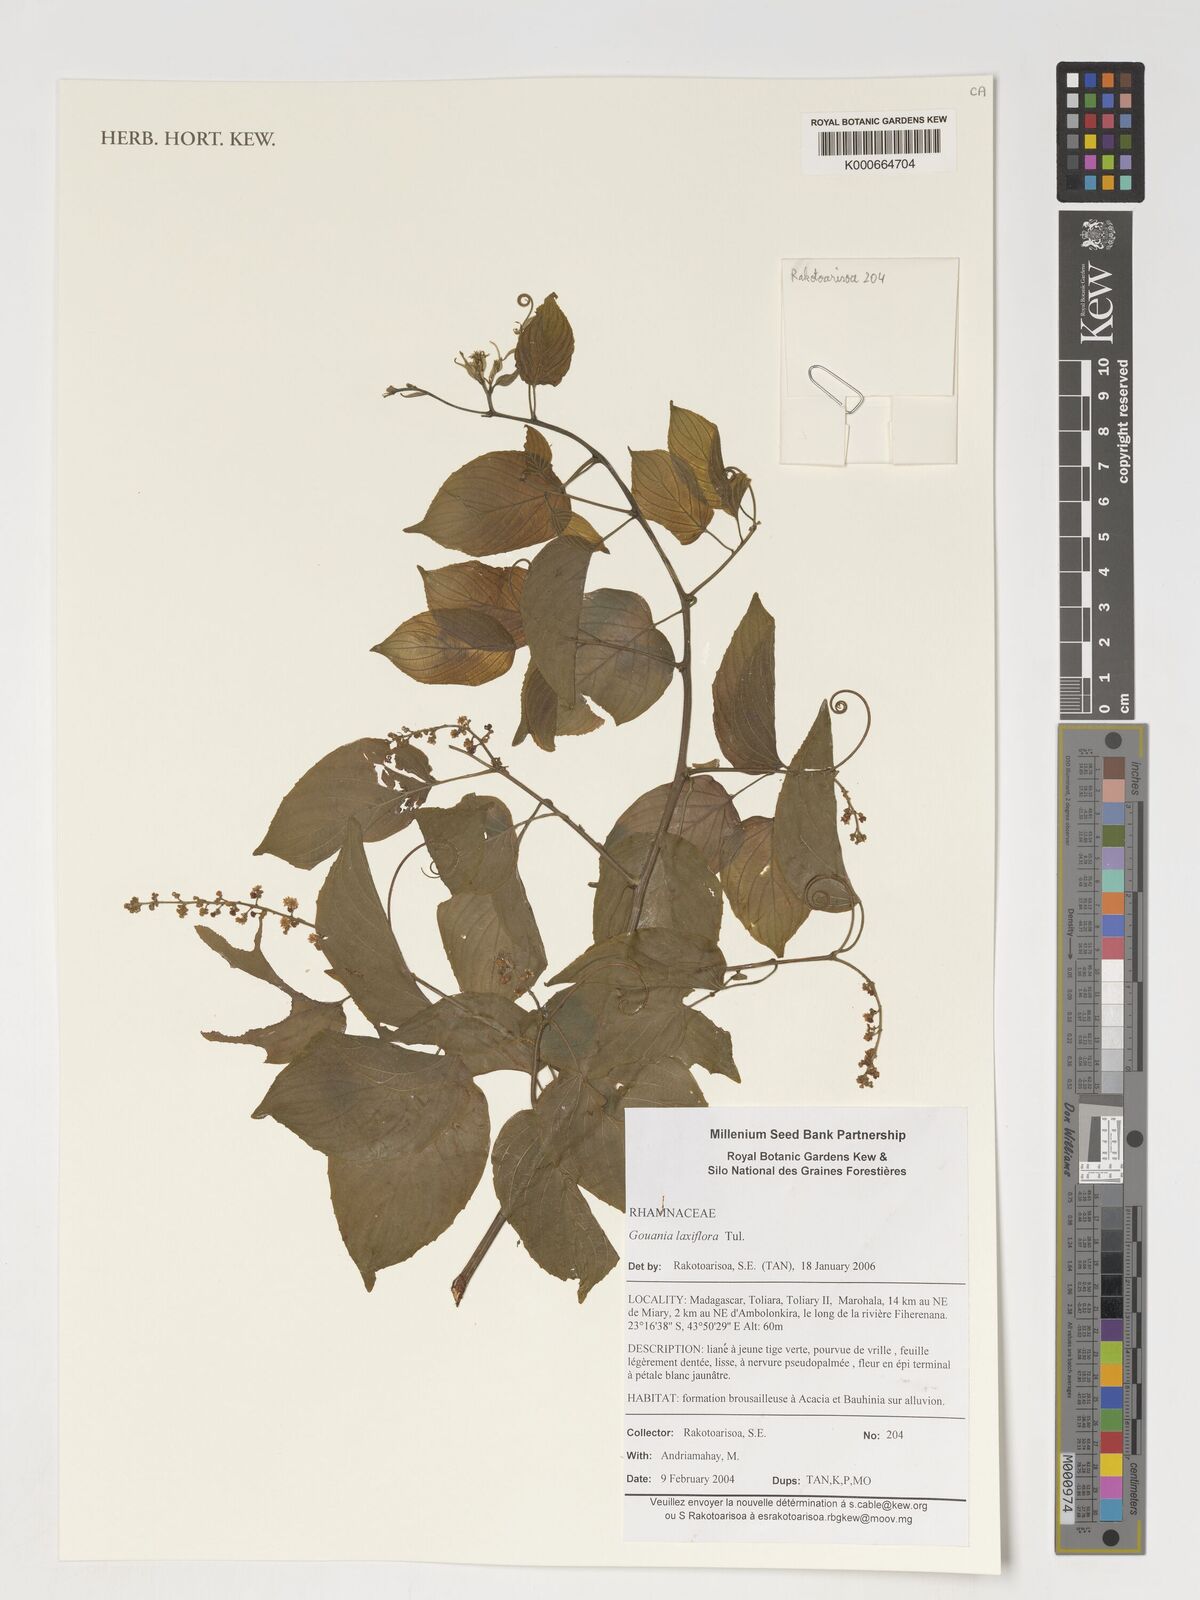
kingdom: Plantae
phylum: Tracheophyta
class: Magnoliopsida
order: Rosales
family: Rhamnaceae
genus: Gouania
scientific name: Gouania laxiflora
